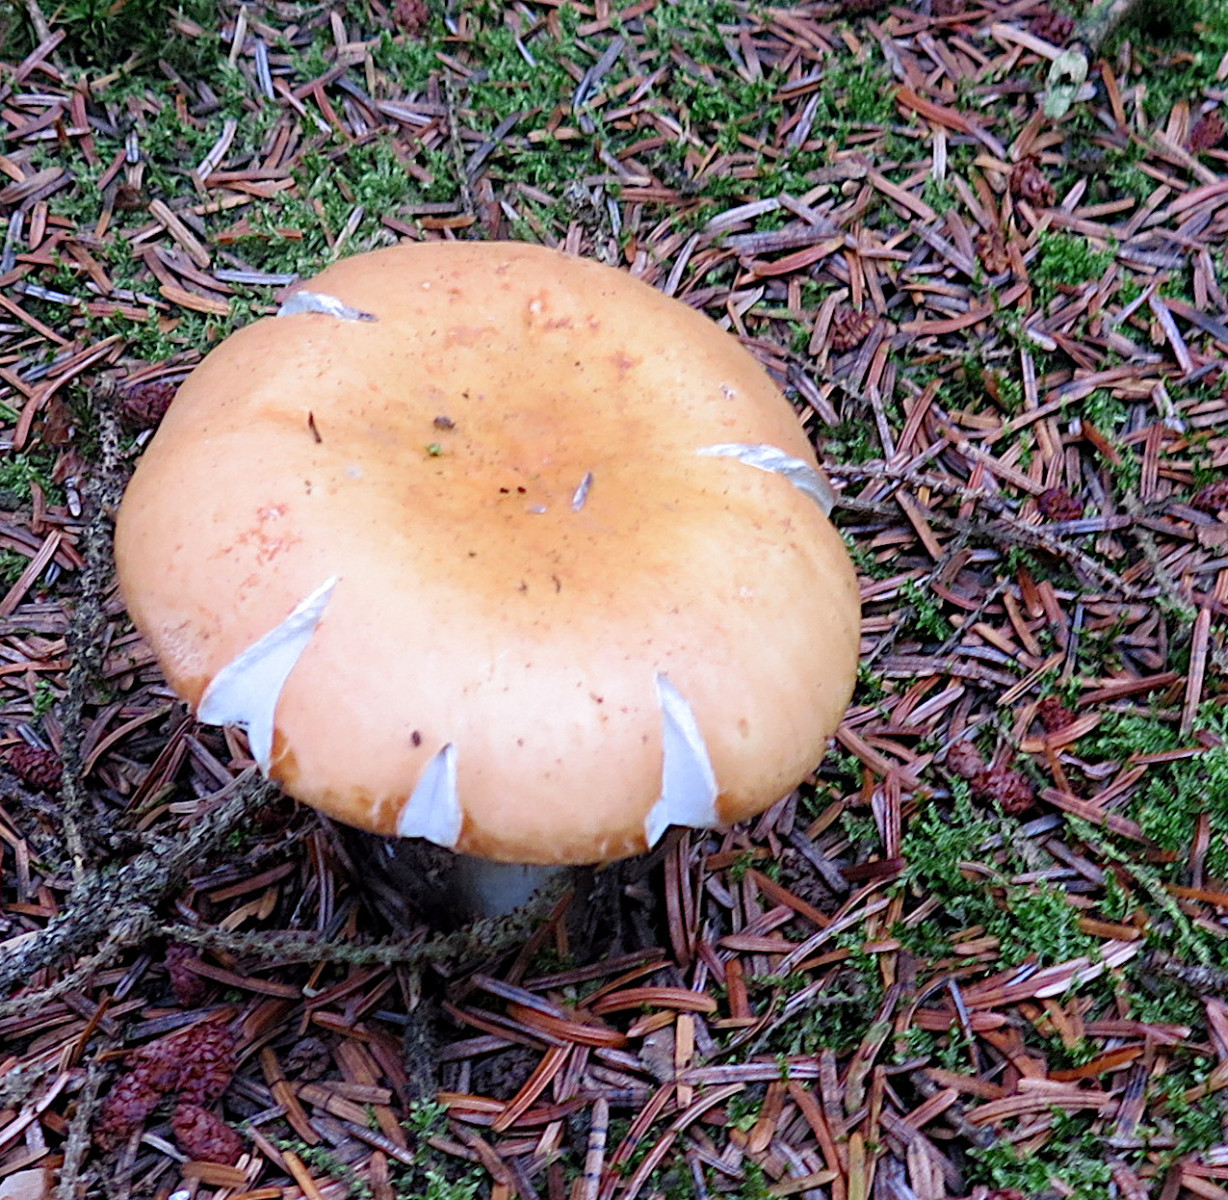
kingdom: Fungi
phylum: Basidiomycota
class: Agaricomycetes
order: Russulales
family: Russulaceae
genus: Russula
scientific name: Russula decolorans
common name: afblegende skørhat
